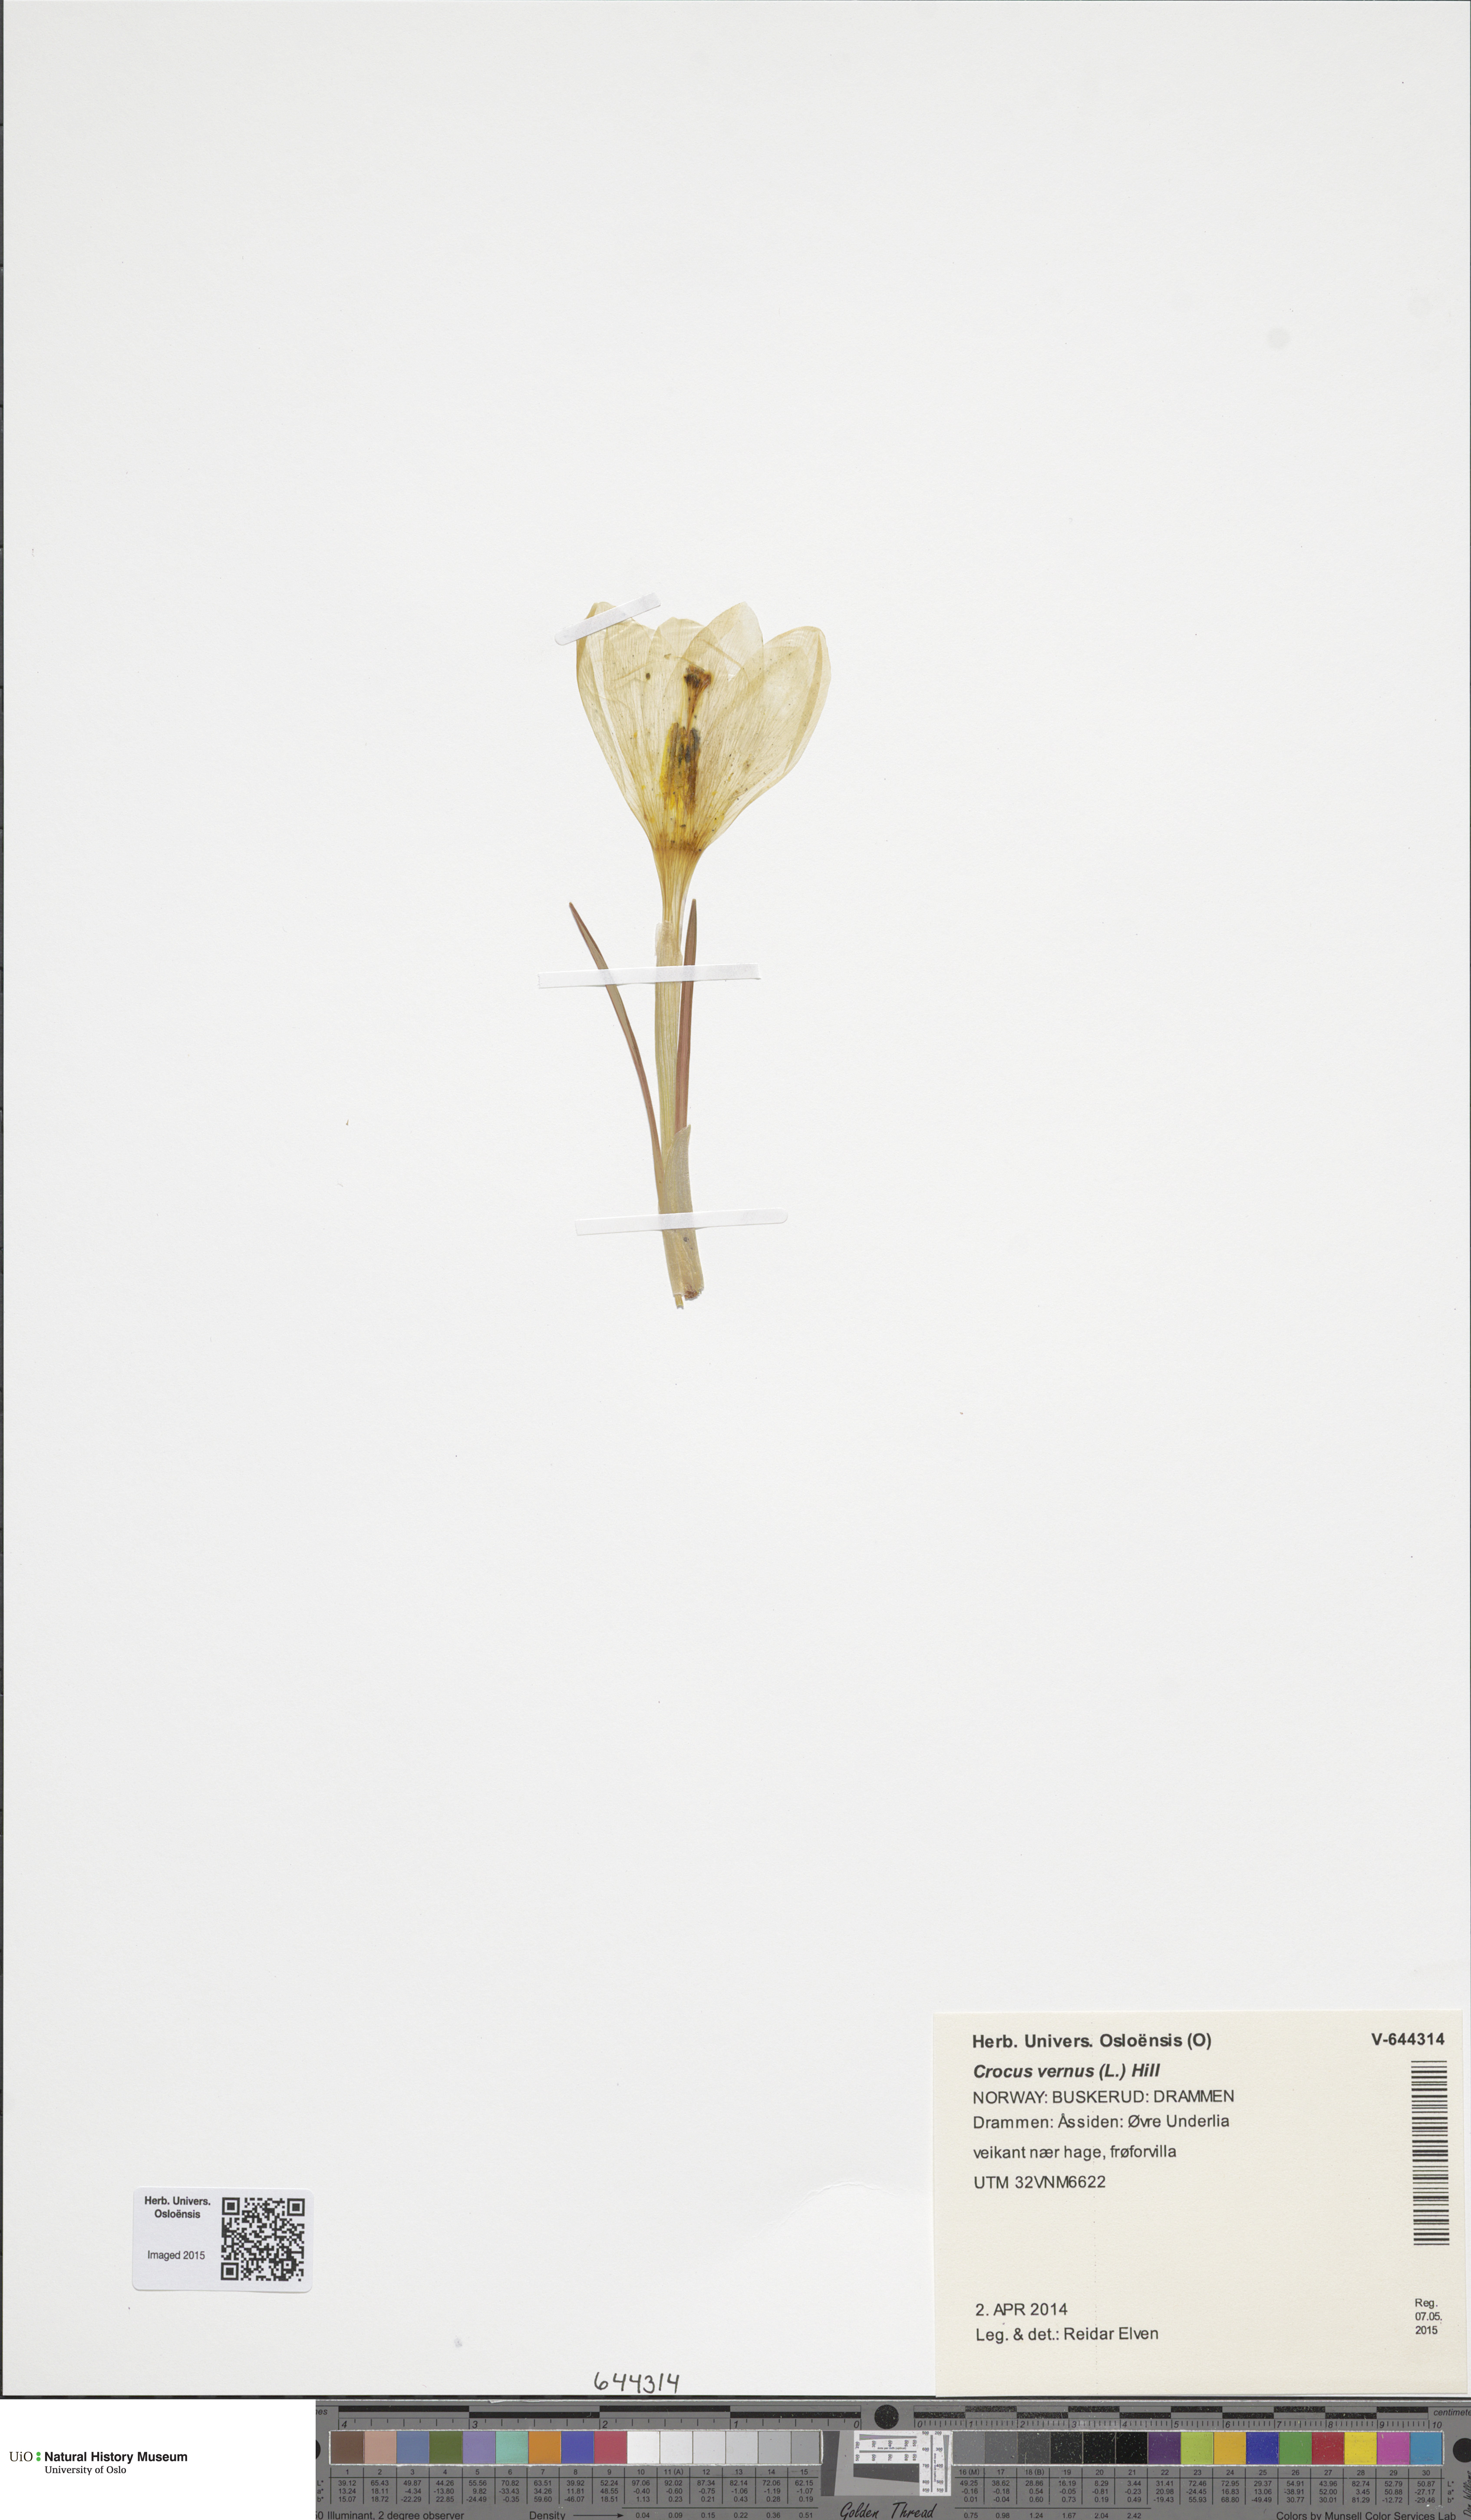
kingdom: Plantae
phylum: Tracheophyta
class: Liliopsida
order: Asparagales
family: Iridaceae
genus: Crocus
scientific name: Crocus vernus
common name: Spring crocus
